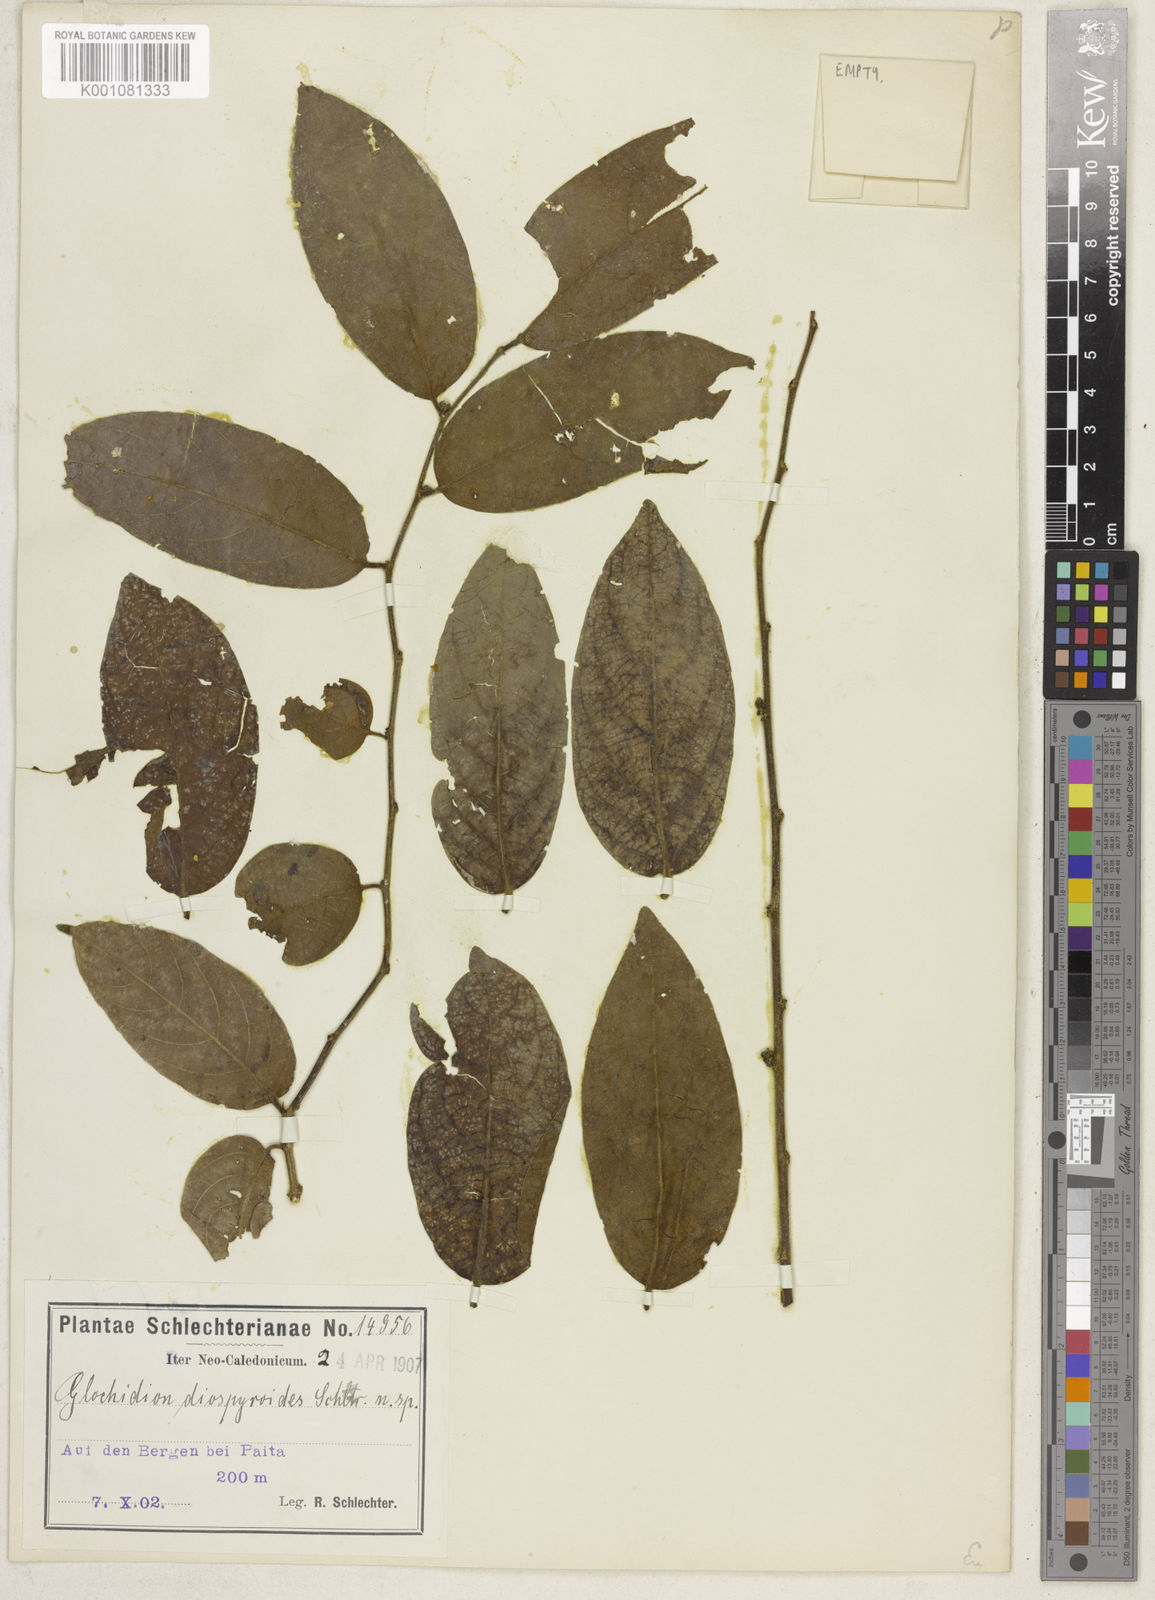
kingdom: Plantae
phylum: Tracheophyta
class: Magnoliopsida
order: Malpighiales
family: Phyllanthaceae
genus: Glochidion
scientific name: Glochidion caledonicum
